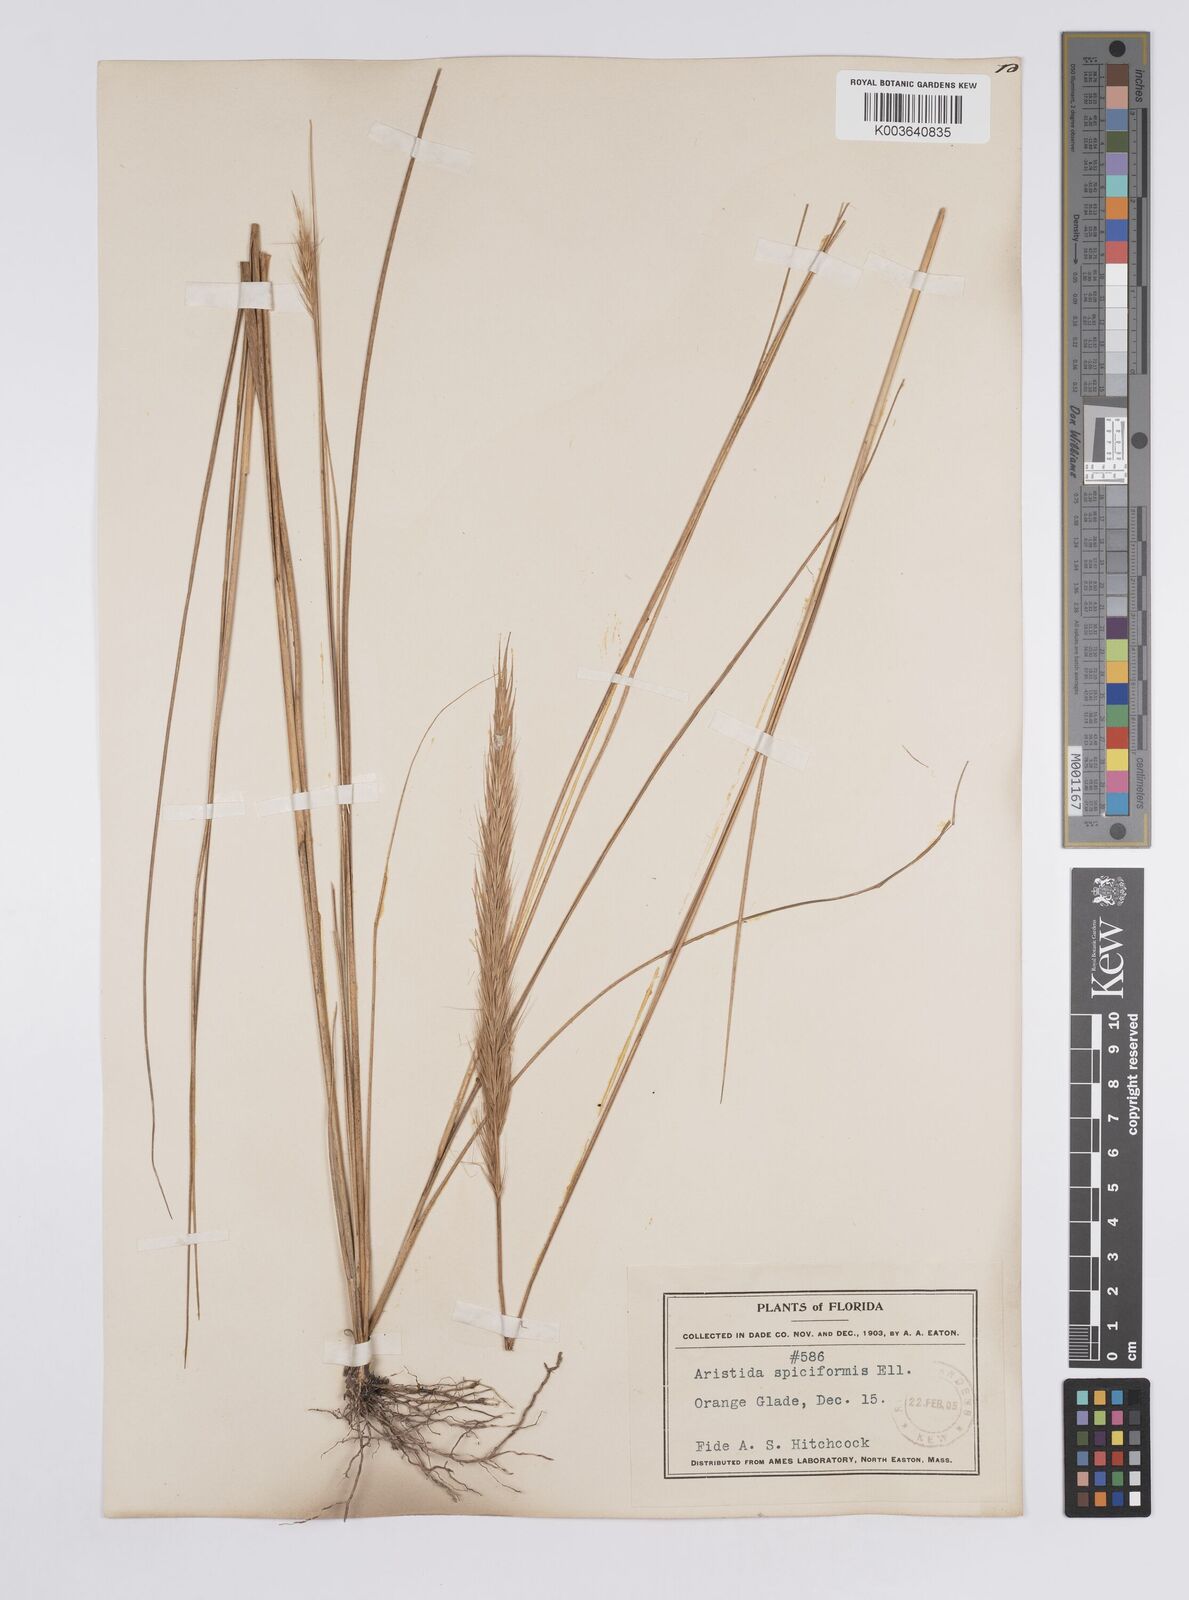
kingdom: Plantae
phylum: Tracheophyta
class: Liliopsida
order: Poales
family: Poaceae
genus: Aristida
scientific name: Aristida spiciformis
